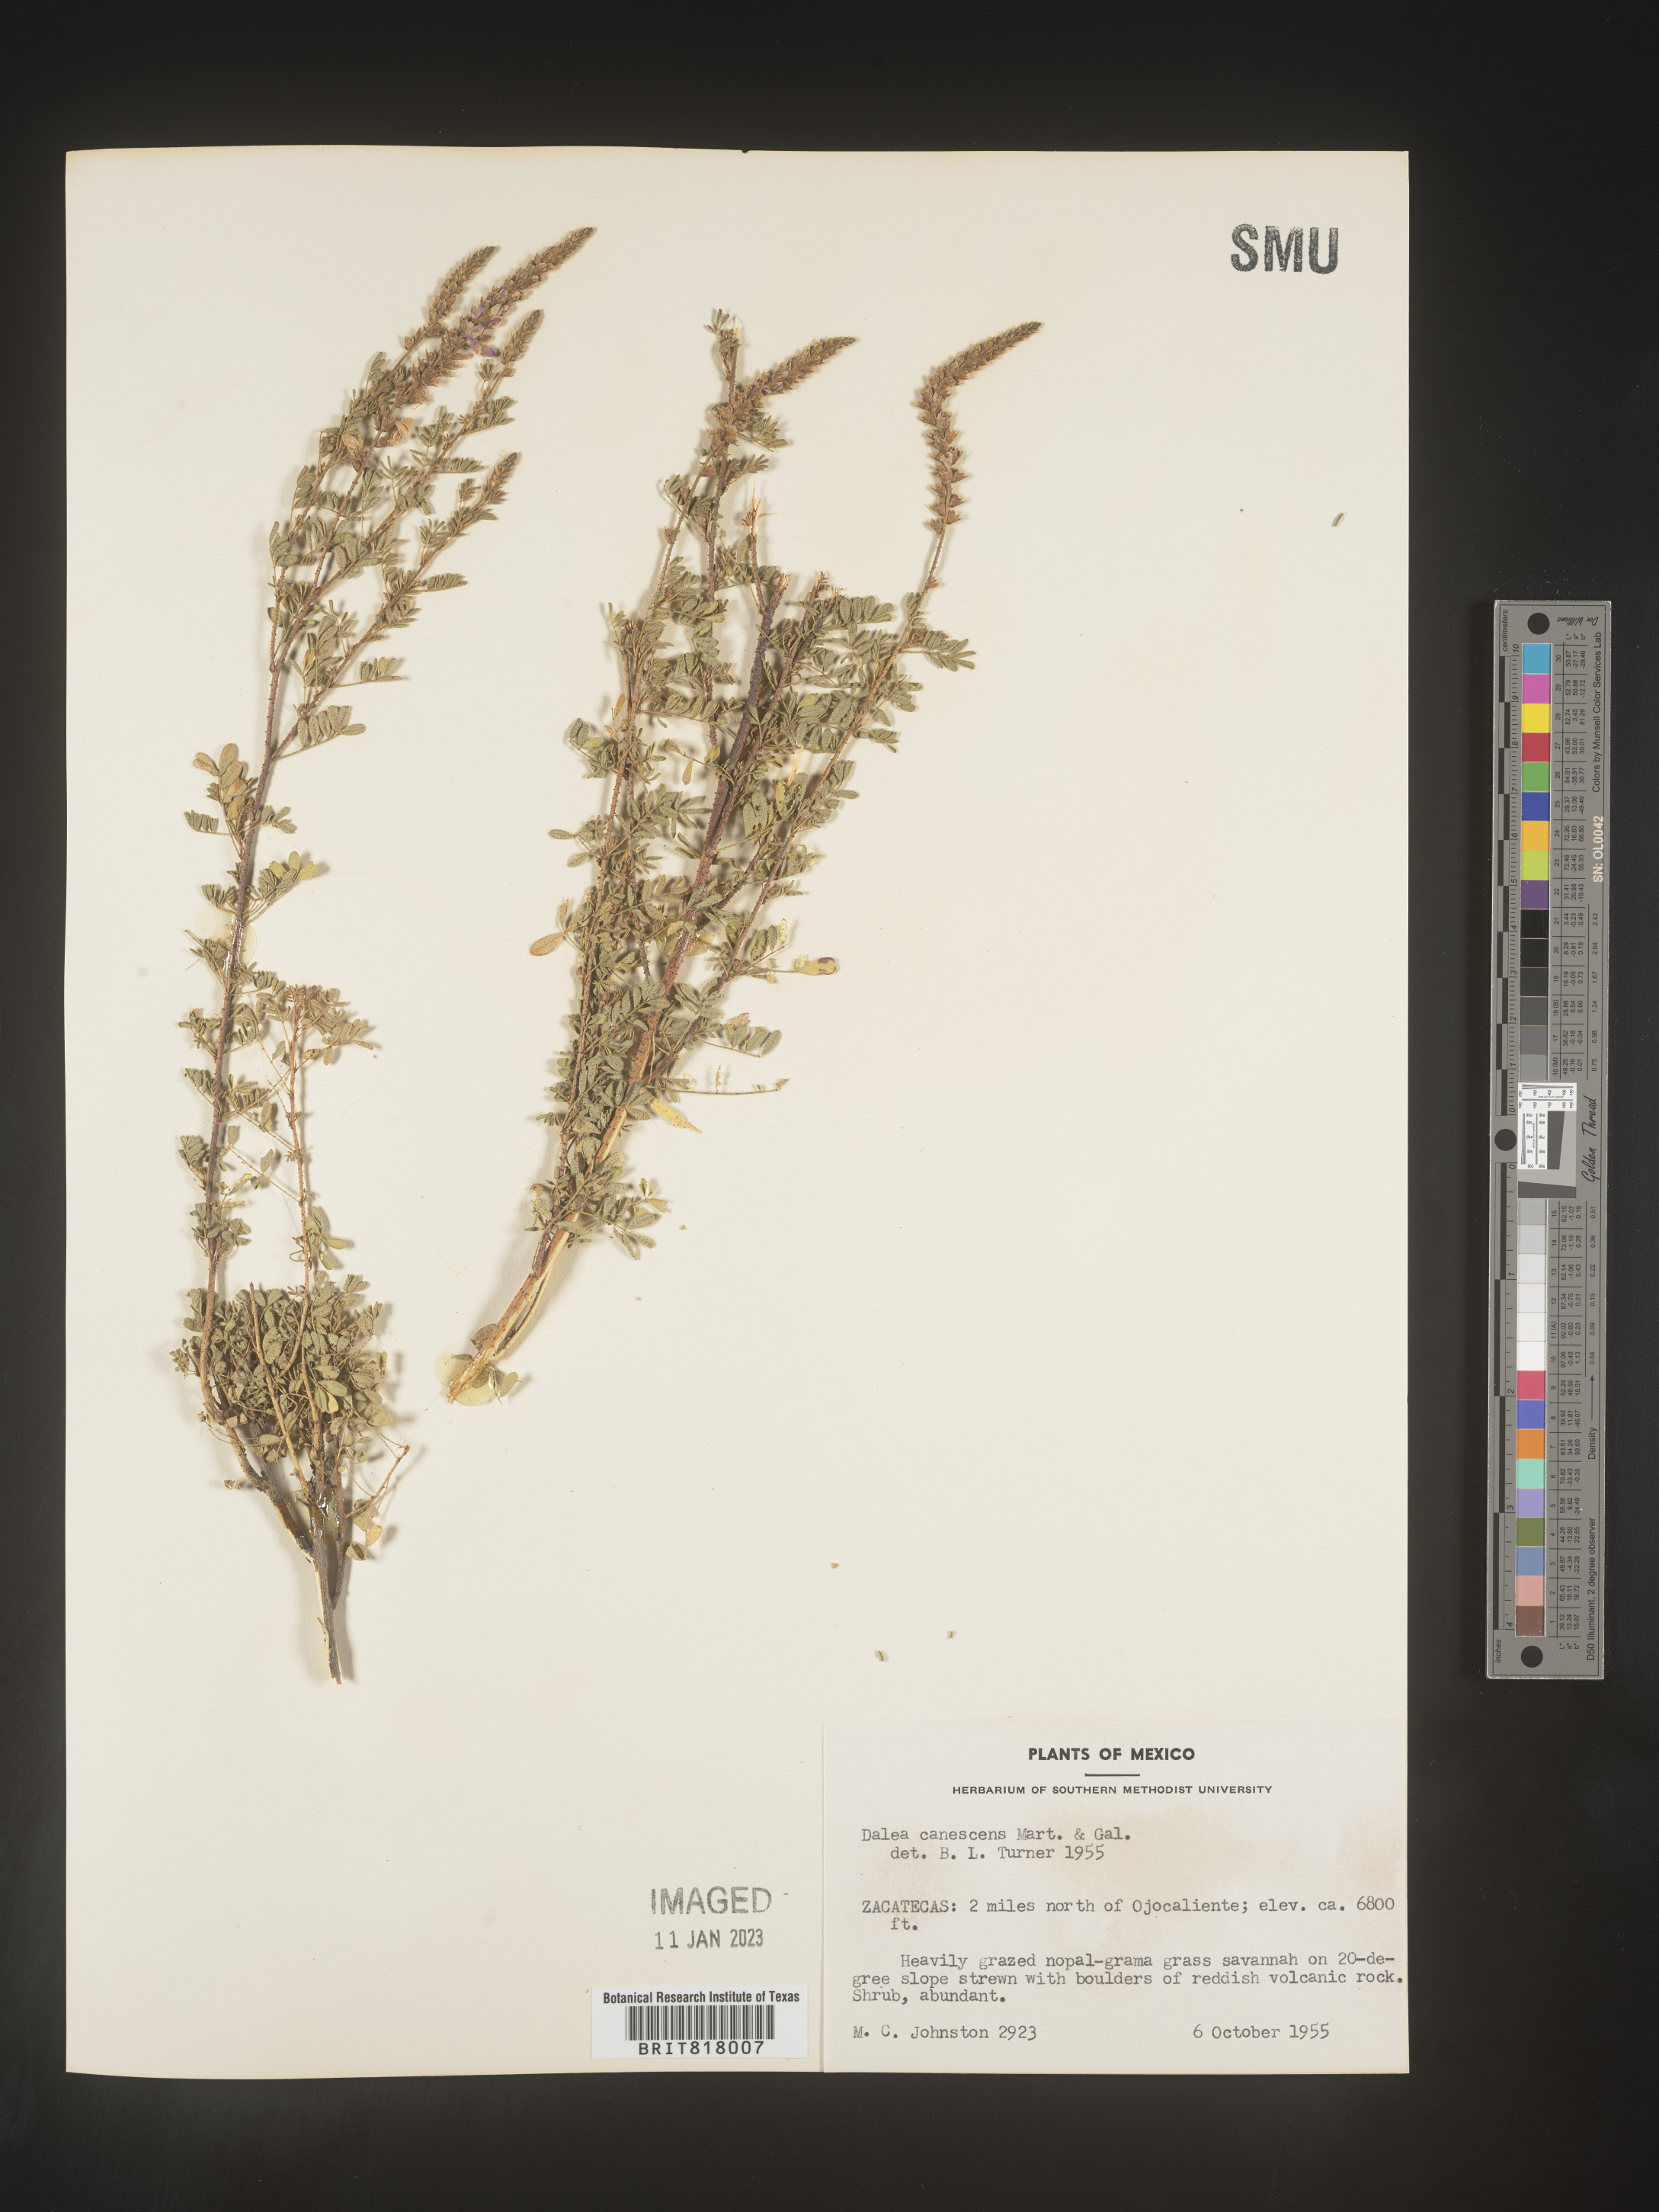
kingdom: Plantae
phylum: Tracheophyta
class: Magnoliopsida
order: Fabales
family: Fabaceae
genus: Dalea
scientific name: Dalea
